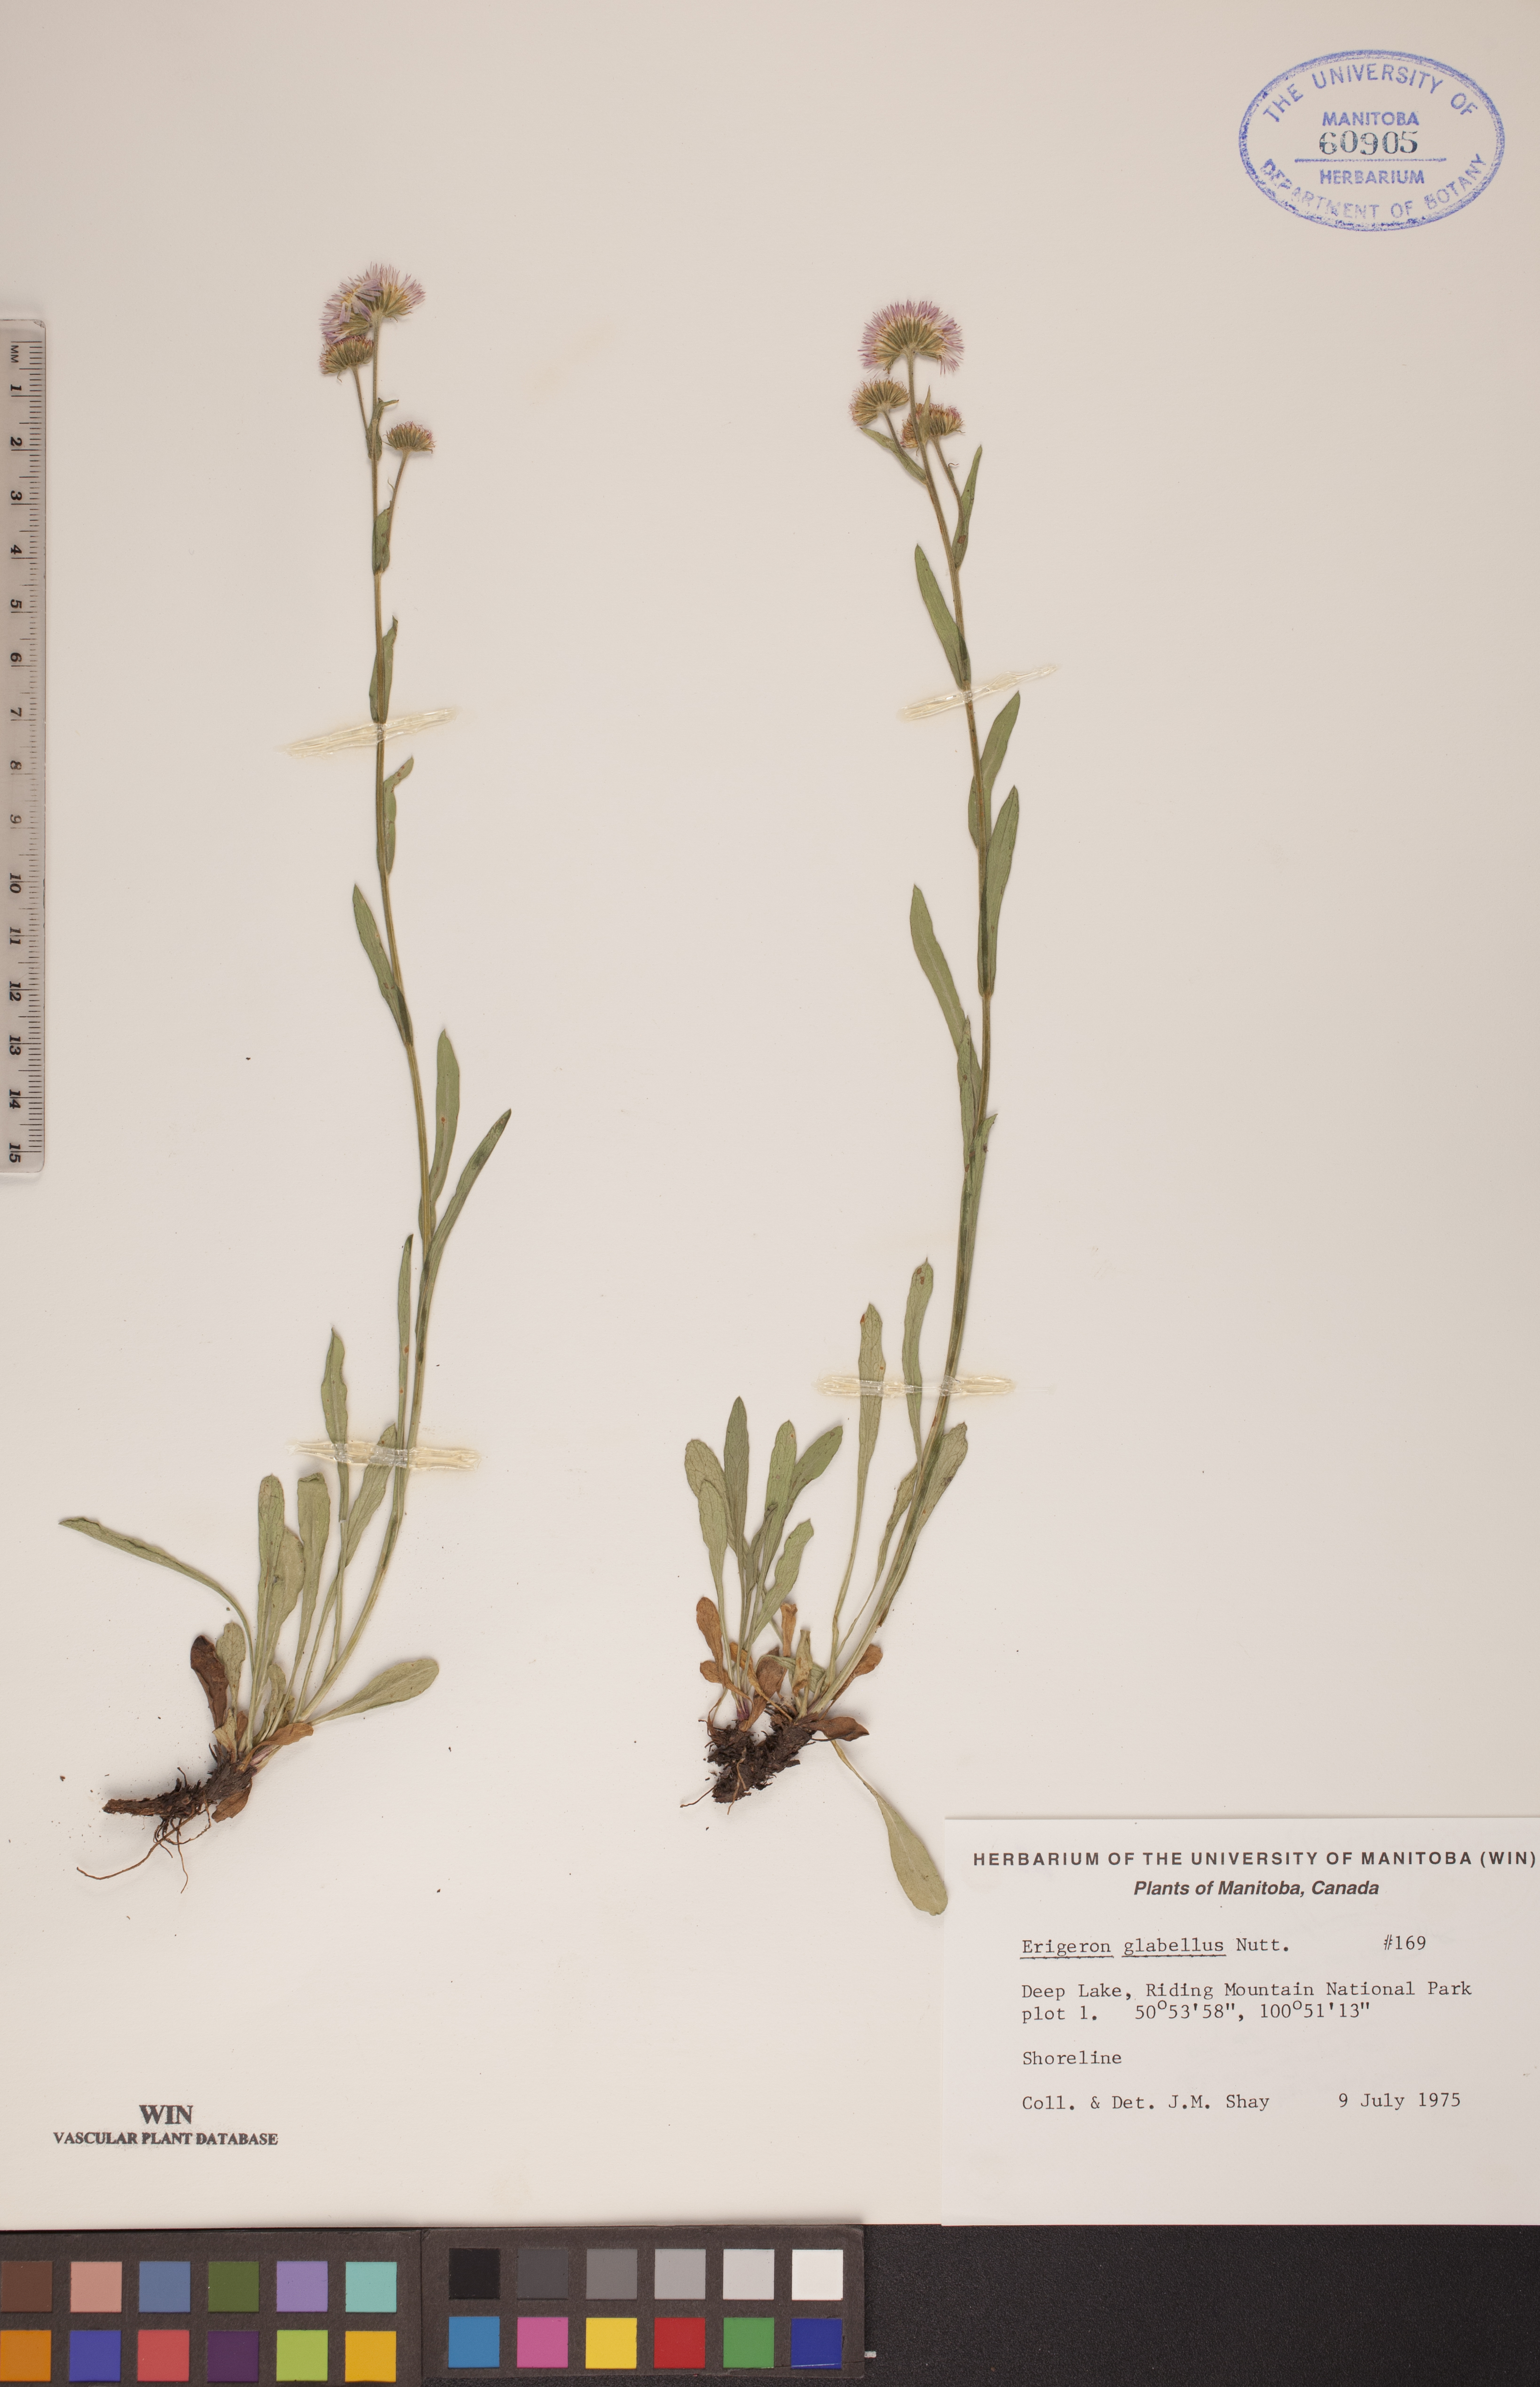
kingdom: Plantae
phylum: Tracheophyta
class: Magnoliopsida
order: Asterales
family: Asteraceae
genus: Erigeron
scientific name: Erigeron glabellus
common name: Smooth fleabane
